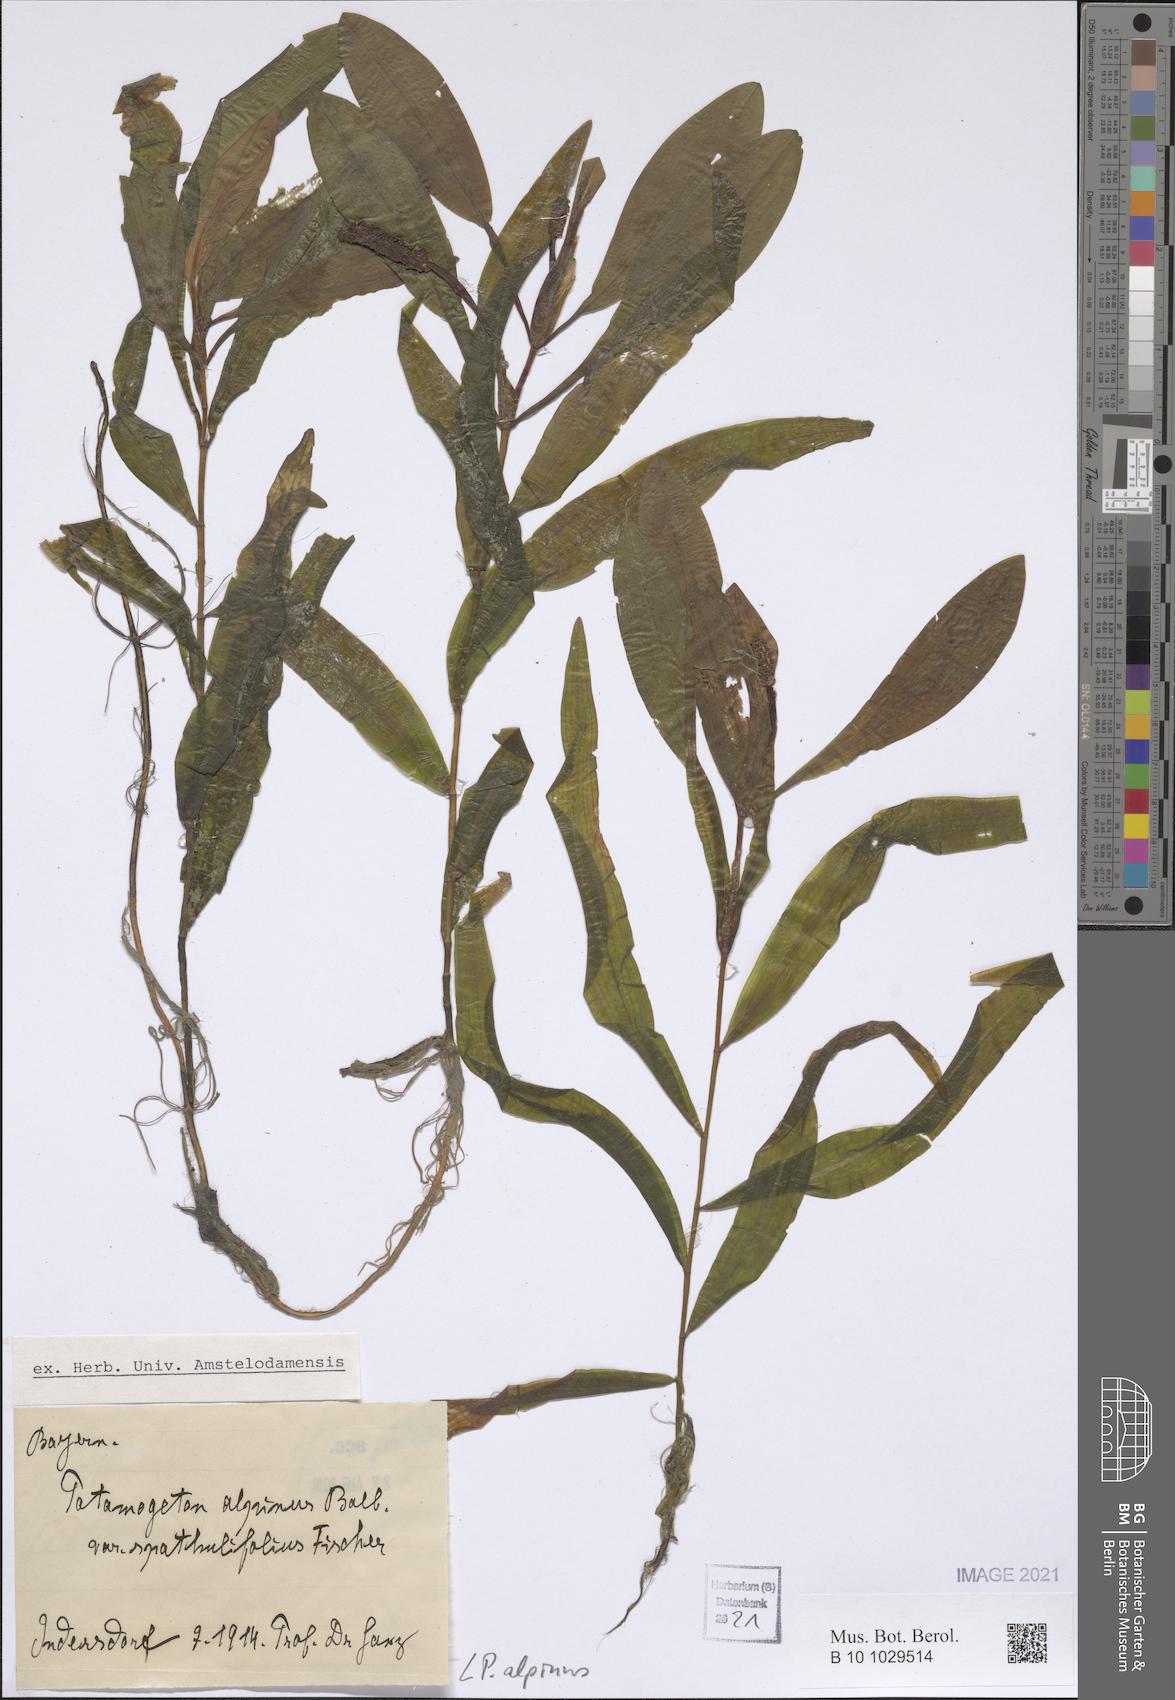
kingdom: Plantae
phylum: Tracheophyta
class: Liliopsida
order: Alismatales
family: Potamogetonaceae
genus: Potamogeton
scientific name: Potamogeton alpinus
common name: Red pondweed
